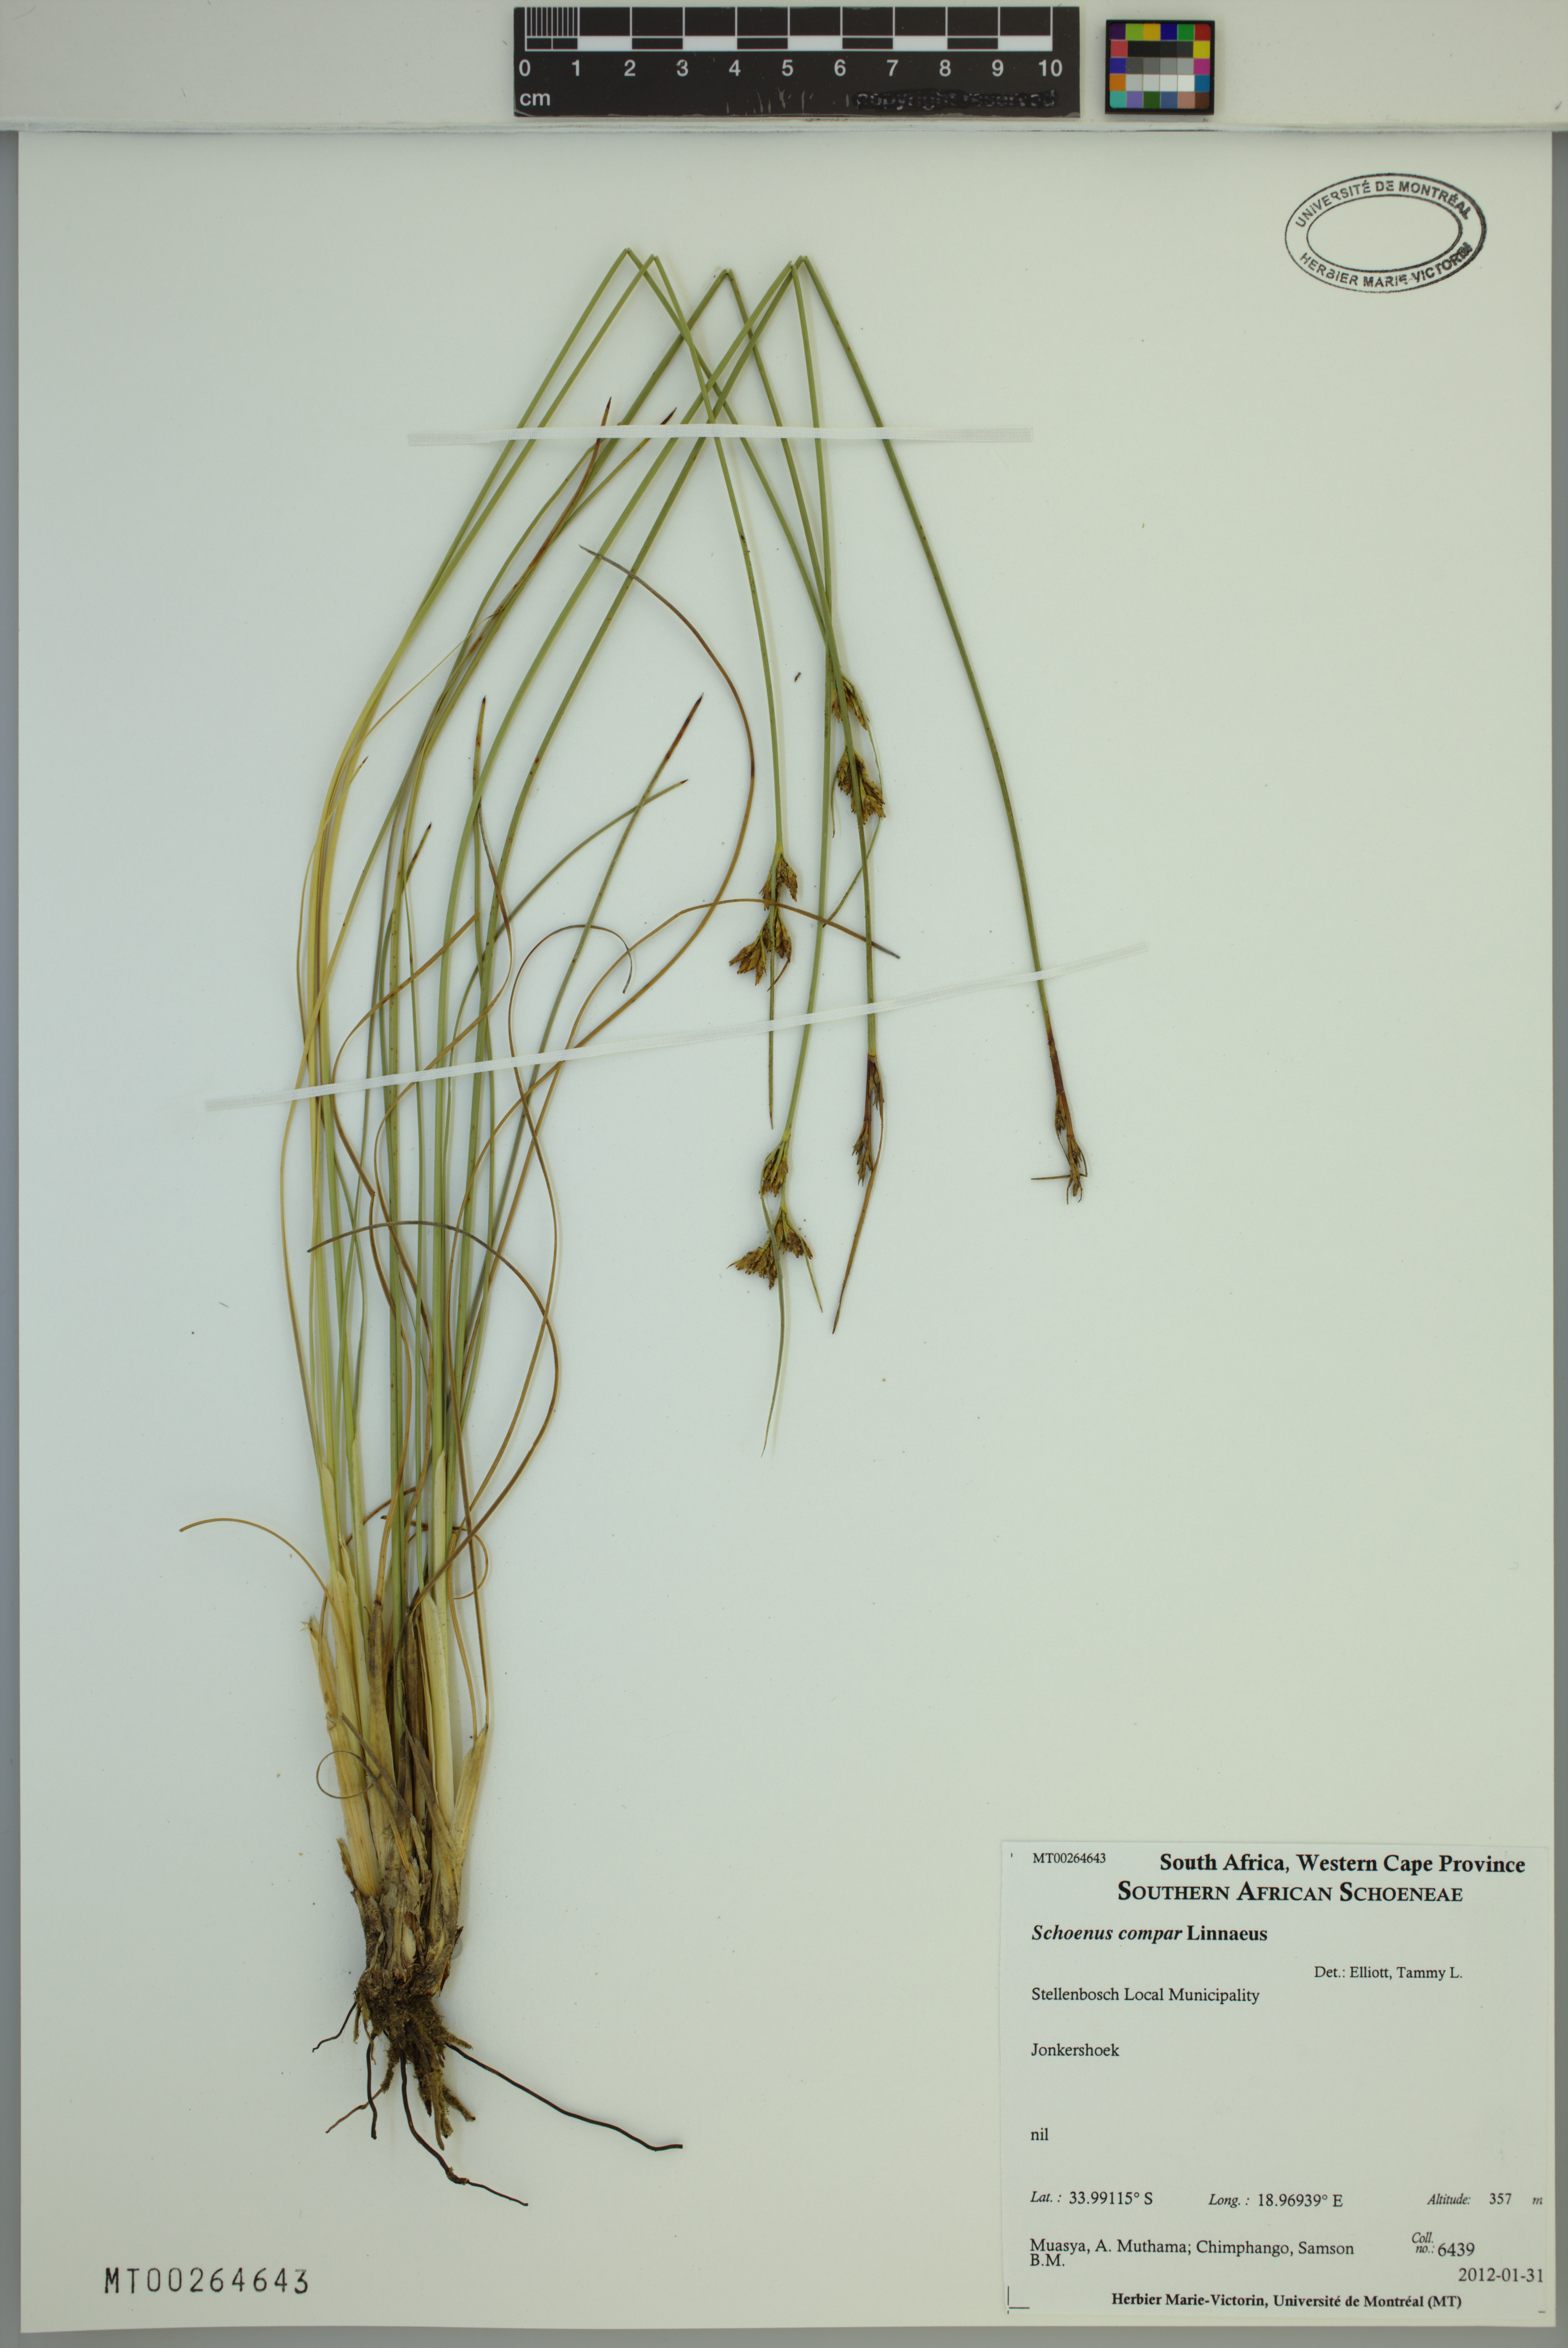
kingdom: Plantae
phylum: Tracheophyta
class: Liliopsida
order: Poales
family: Cyperaceae
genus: Schoenus
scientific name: Schoenus compar
